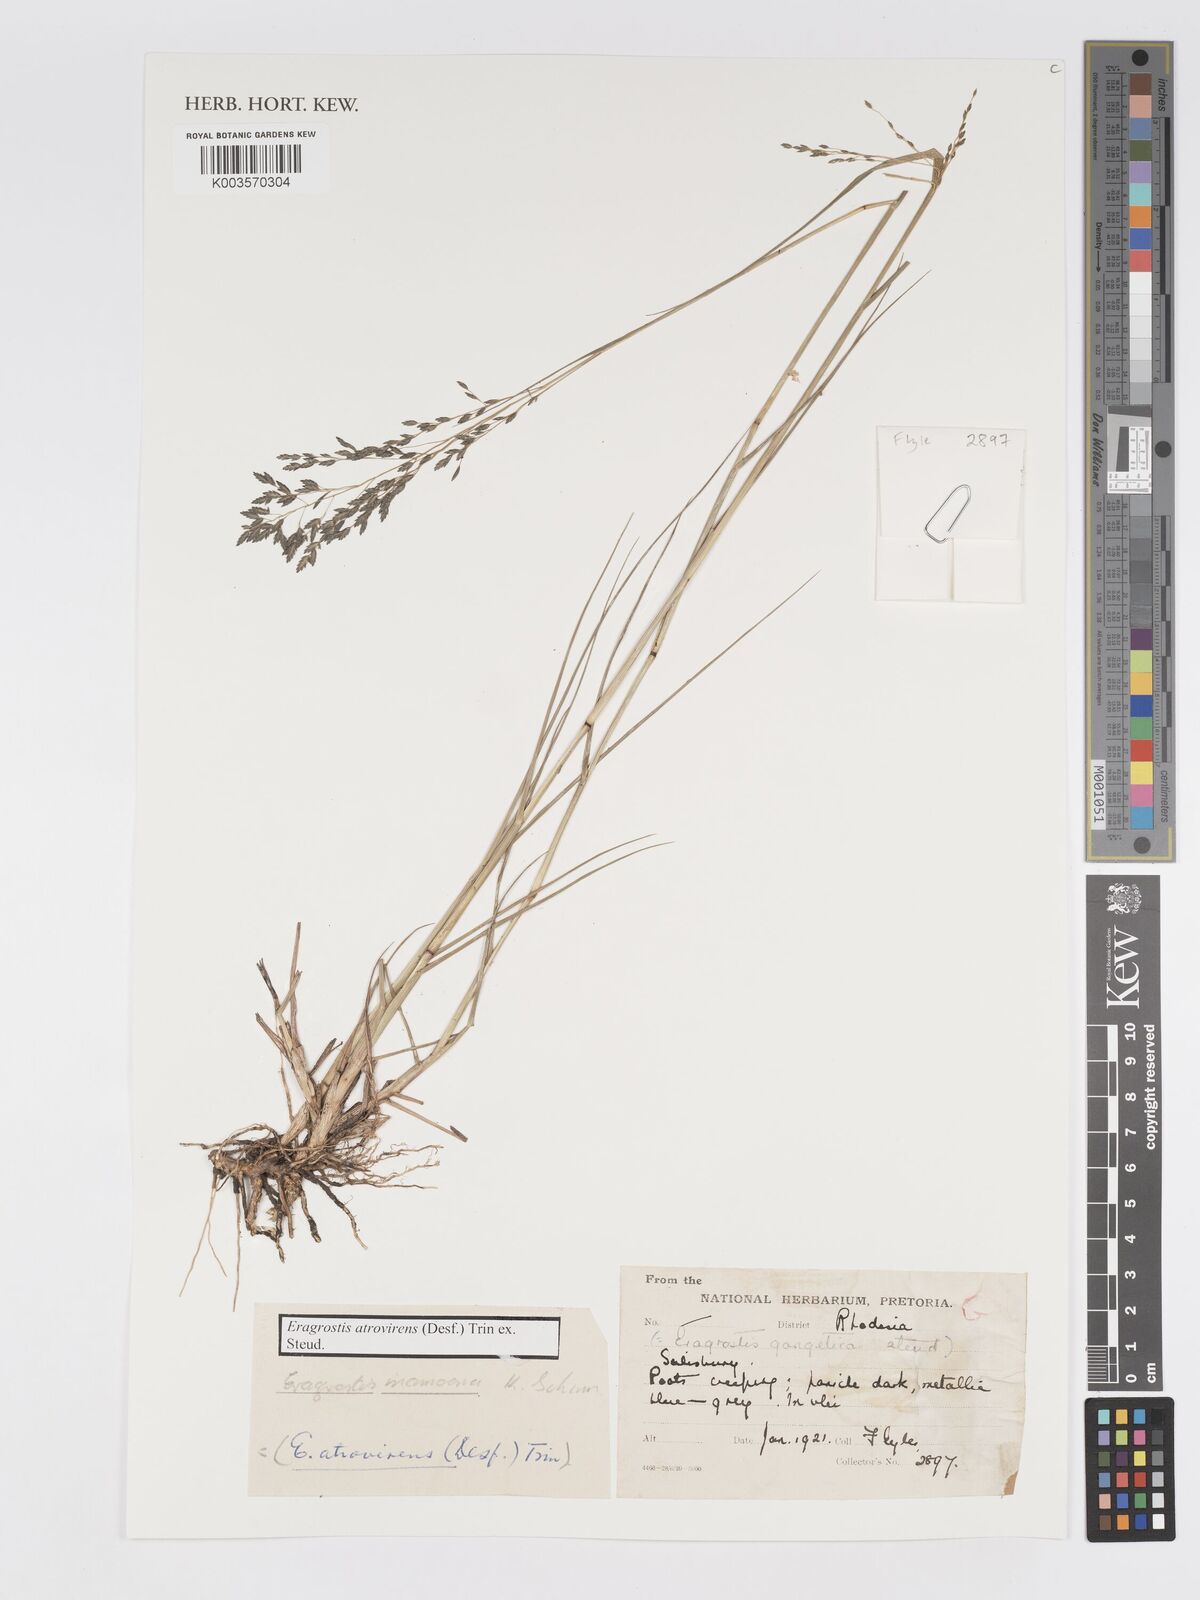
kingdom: Plantae
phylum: Tracheophyta
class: Liliopsida
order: Poales
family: Poaceae
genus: Eragrostis
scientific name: Eragrostis atrovirens
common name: Thalia lovegrass
